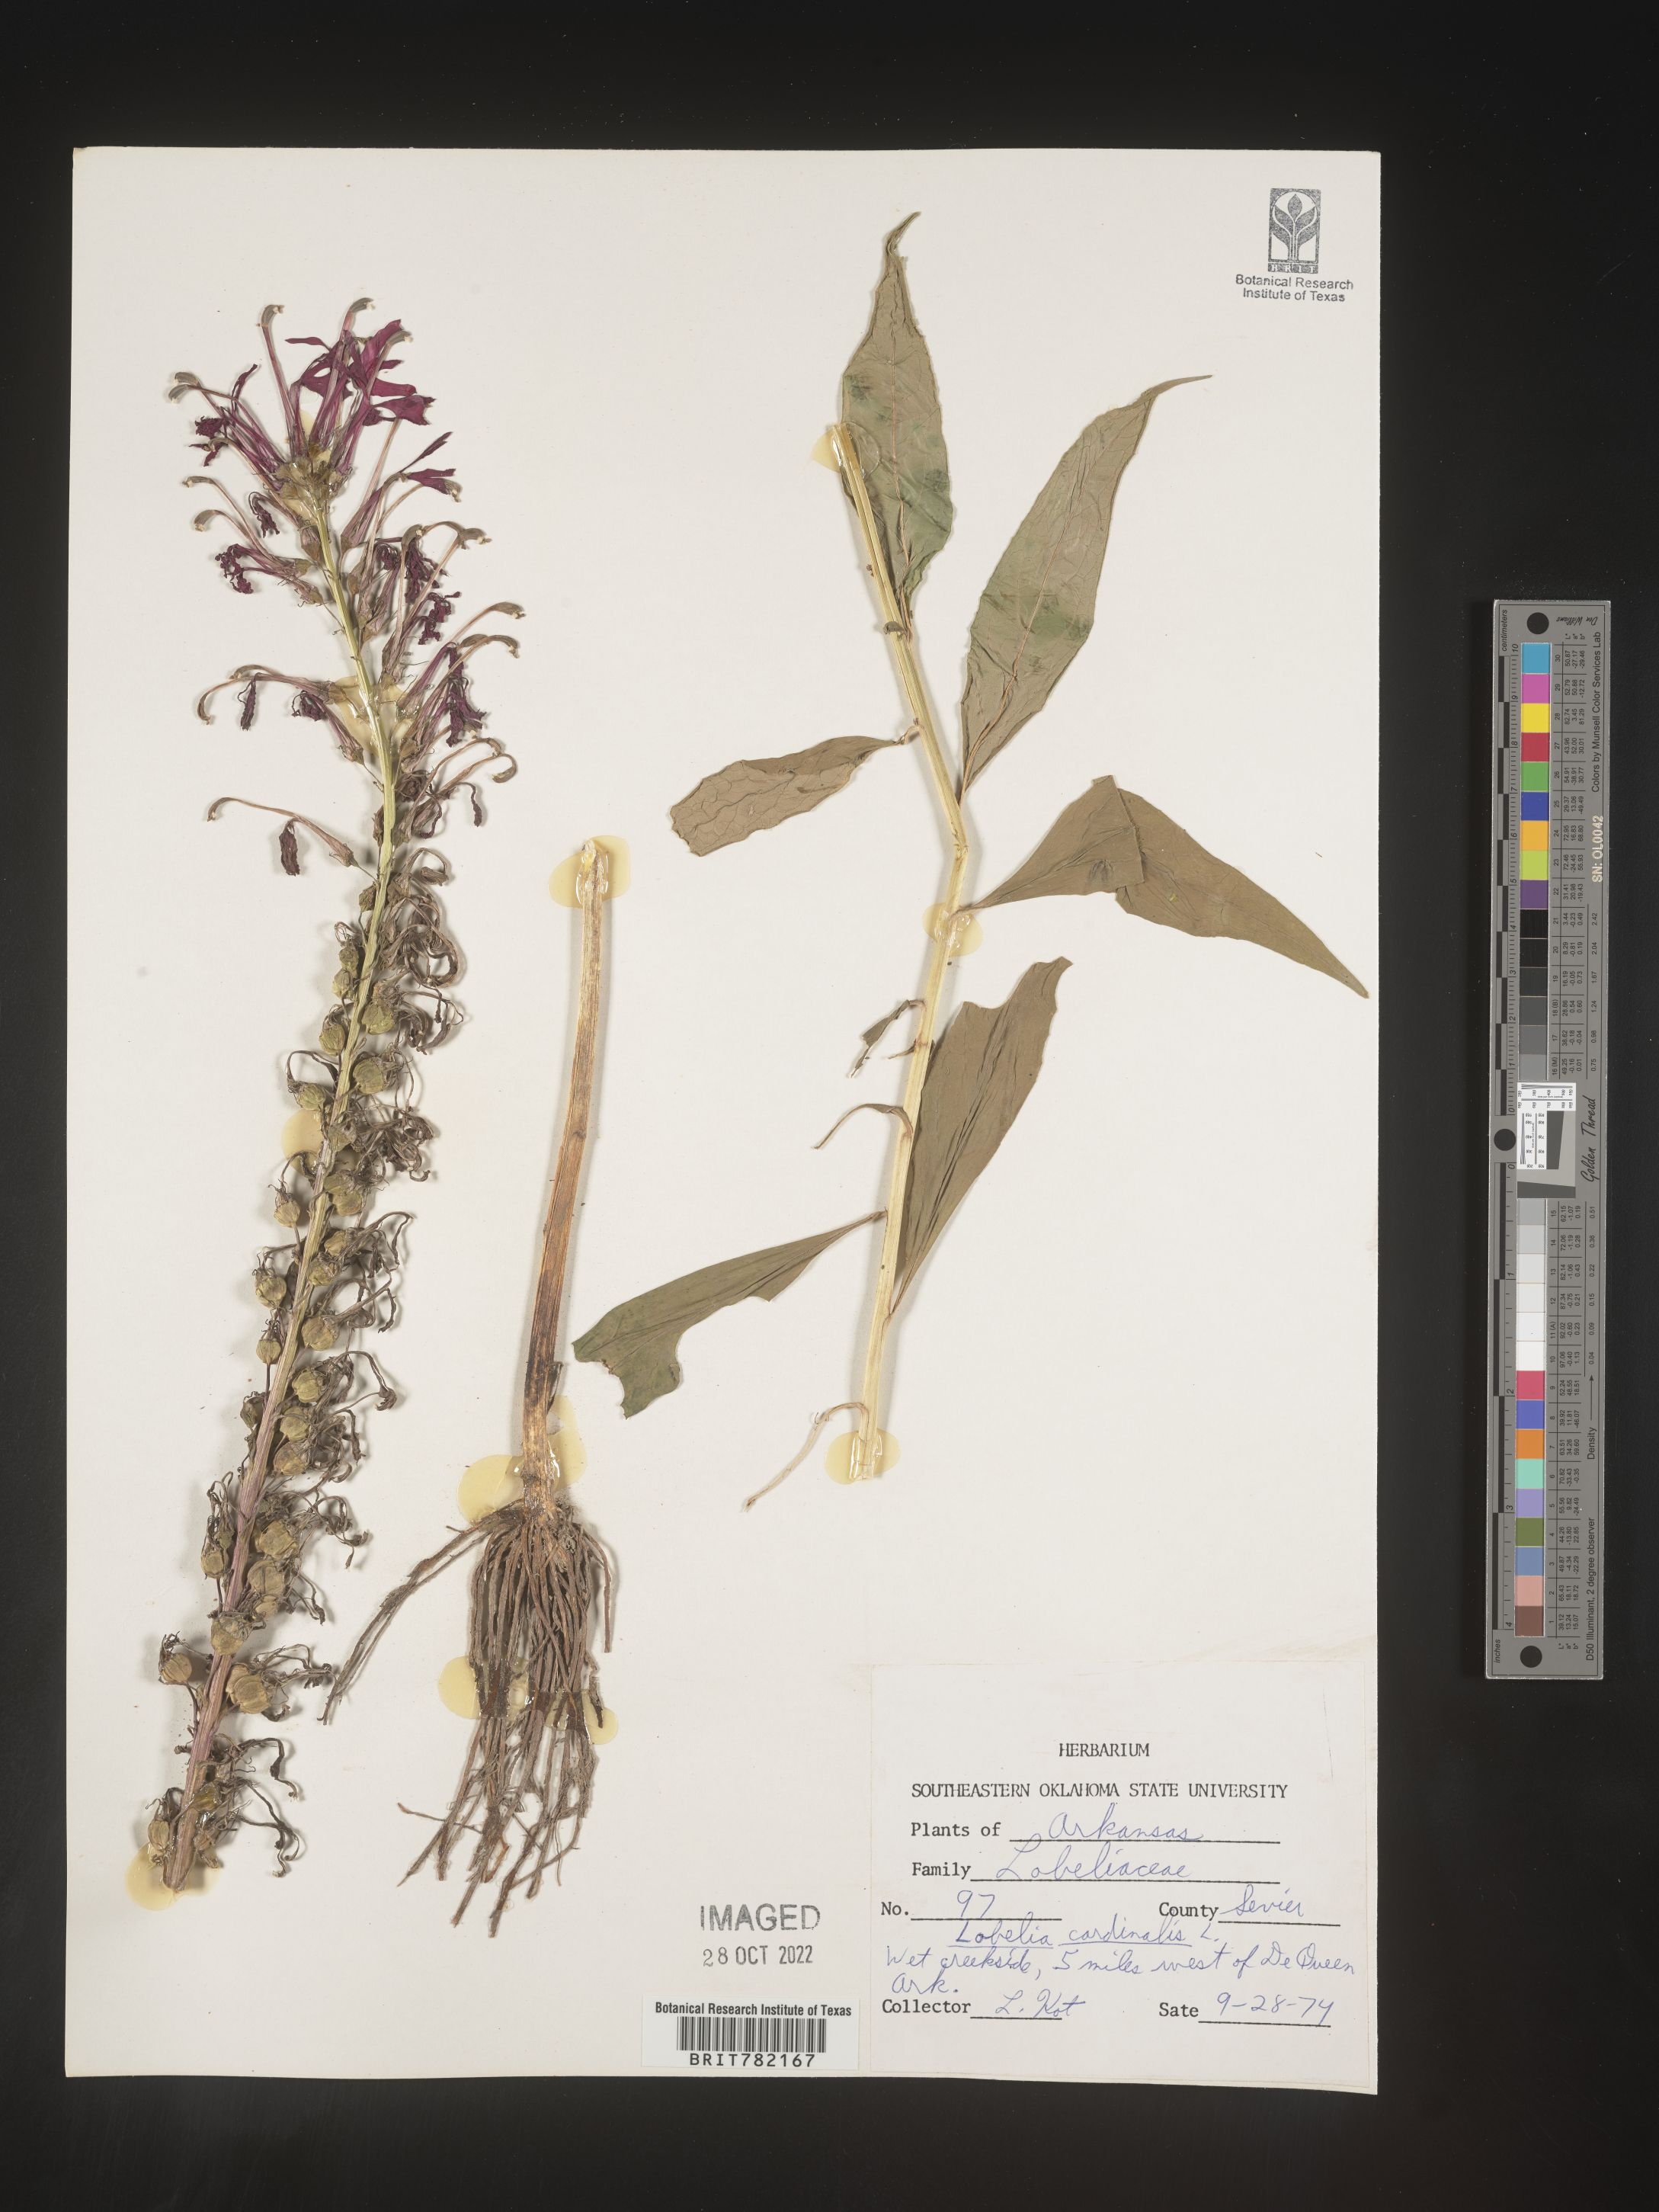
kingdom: Plantae
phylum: Tracheophyta
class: Magnoliopsida
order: Asterales
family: Campanulaceae
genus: Lobelia
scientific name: Lobelia cardinalis
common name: Cardinal flower
